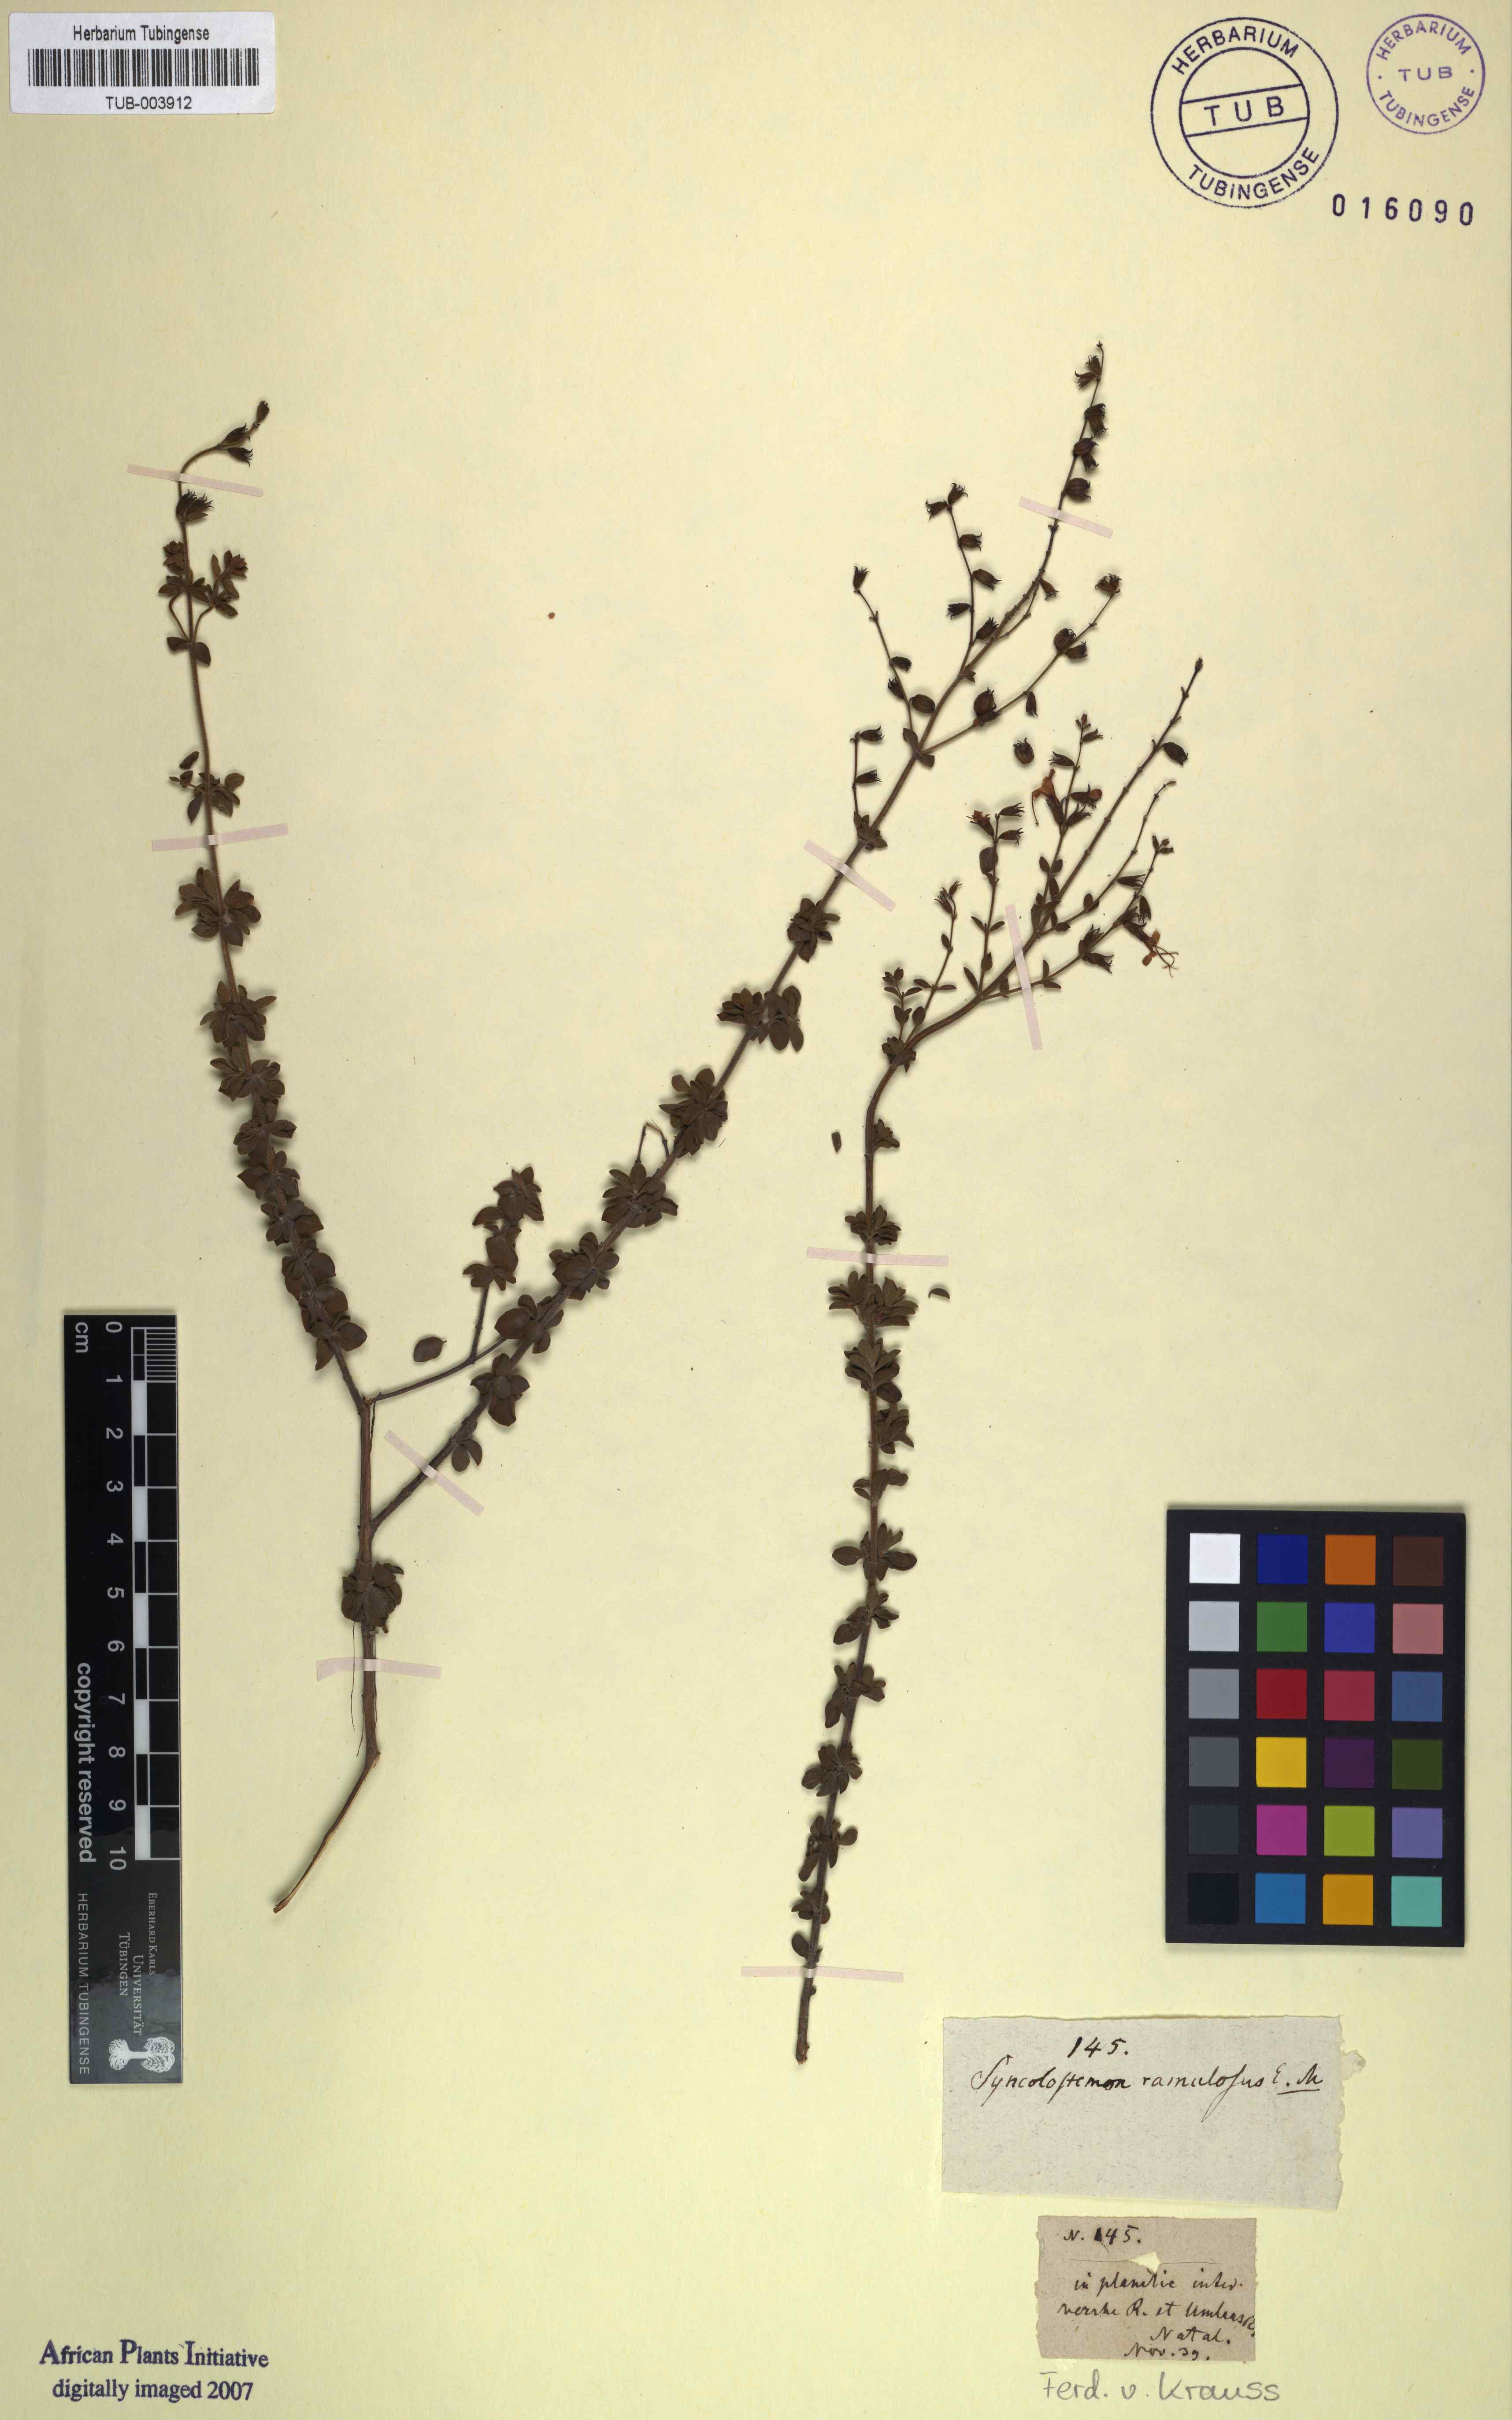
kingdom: Plantae
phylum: Tracheophyta
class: Magnoliopsida
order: Lamiales
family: Lamiaceae
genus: Syncolostemon
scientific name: Syncolostemon ramulosus
